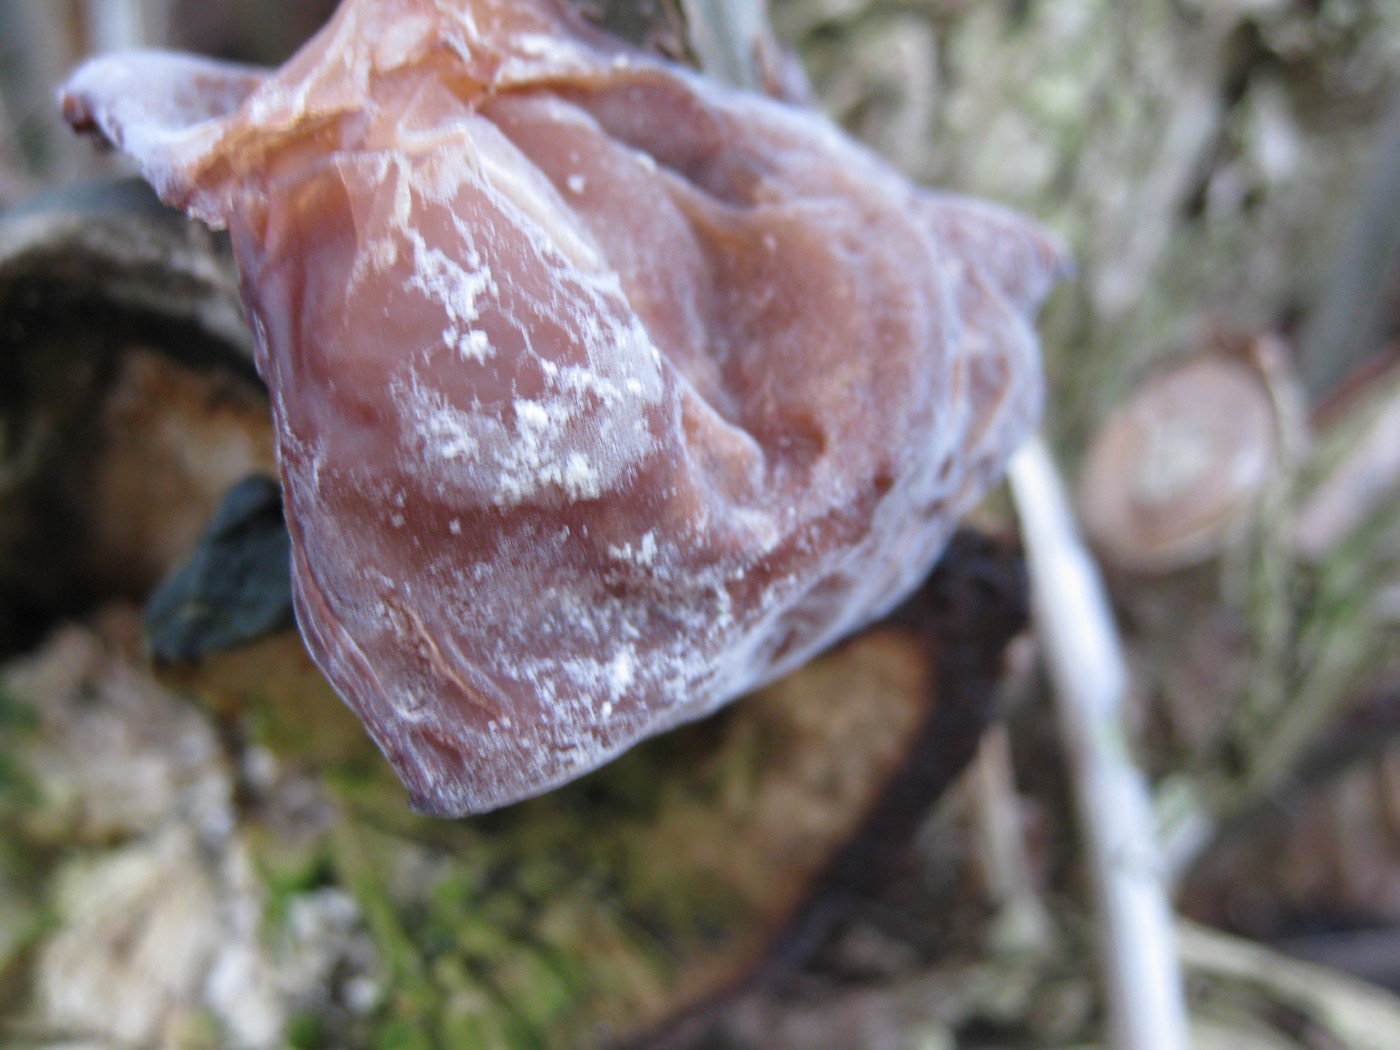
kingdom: Fungi
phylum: Basidiomycota
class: Agaricomycetes
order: Auriculariales
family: Auriculariaceae
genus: Auricularia
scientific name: Auricularia auricula-judae
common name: almindelig judasøre
